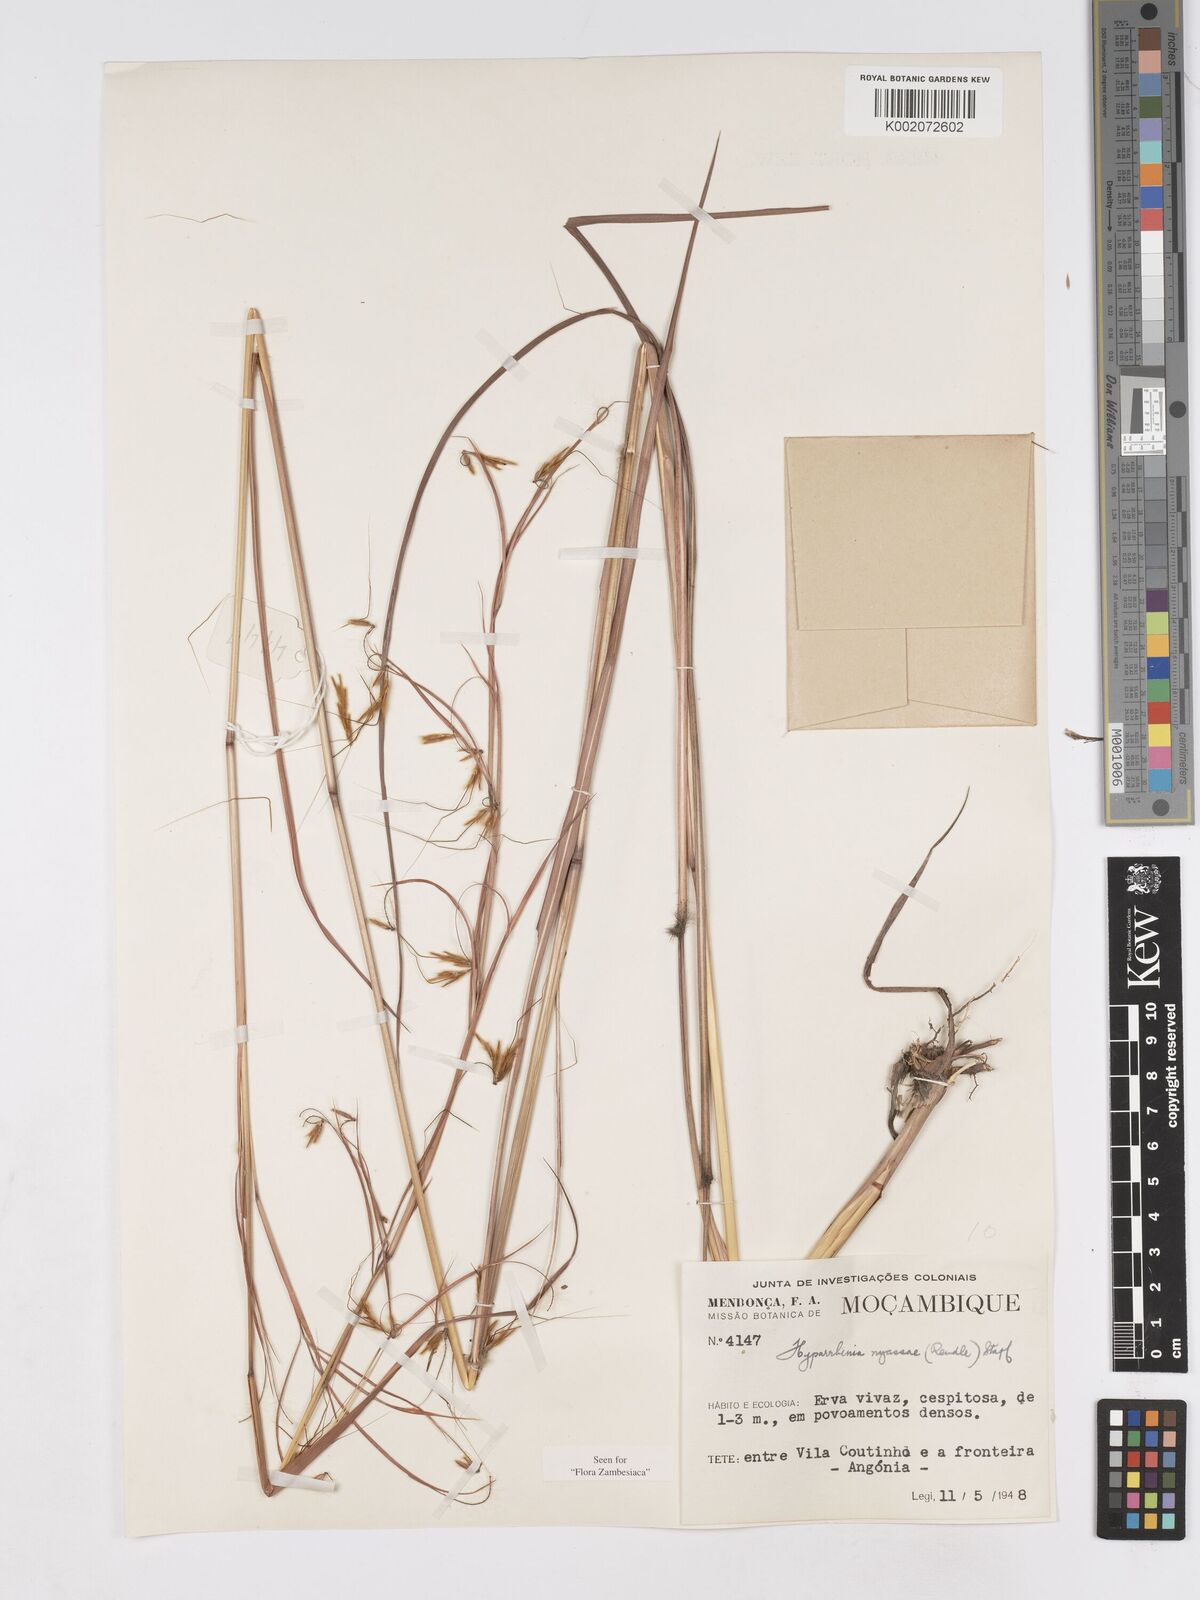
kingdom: Plantae
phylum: Tracheophyta
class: Liliopsida
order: Poales
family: Poaceae
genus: Hyparrhenia
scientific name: Hyparrhenia nyassae
